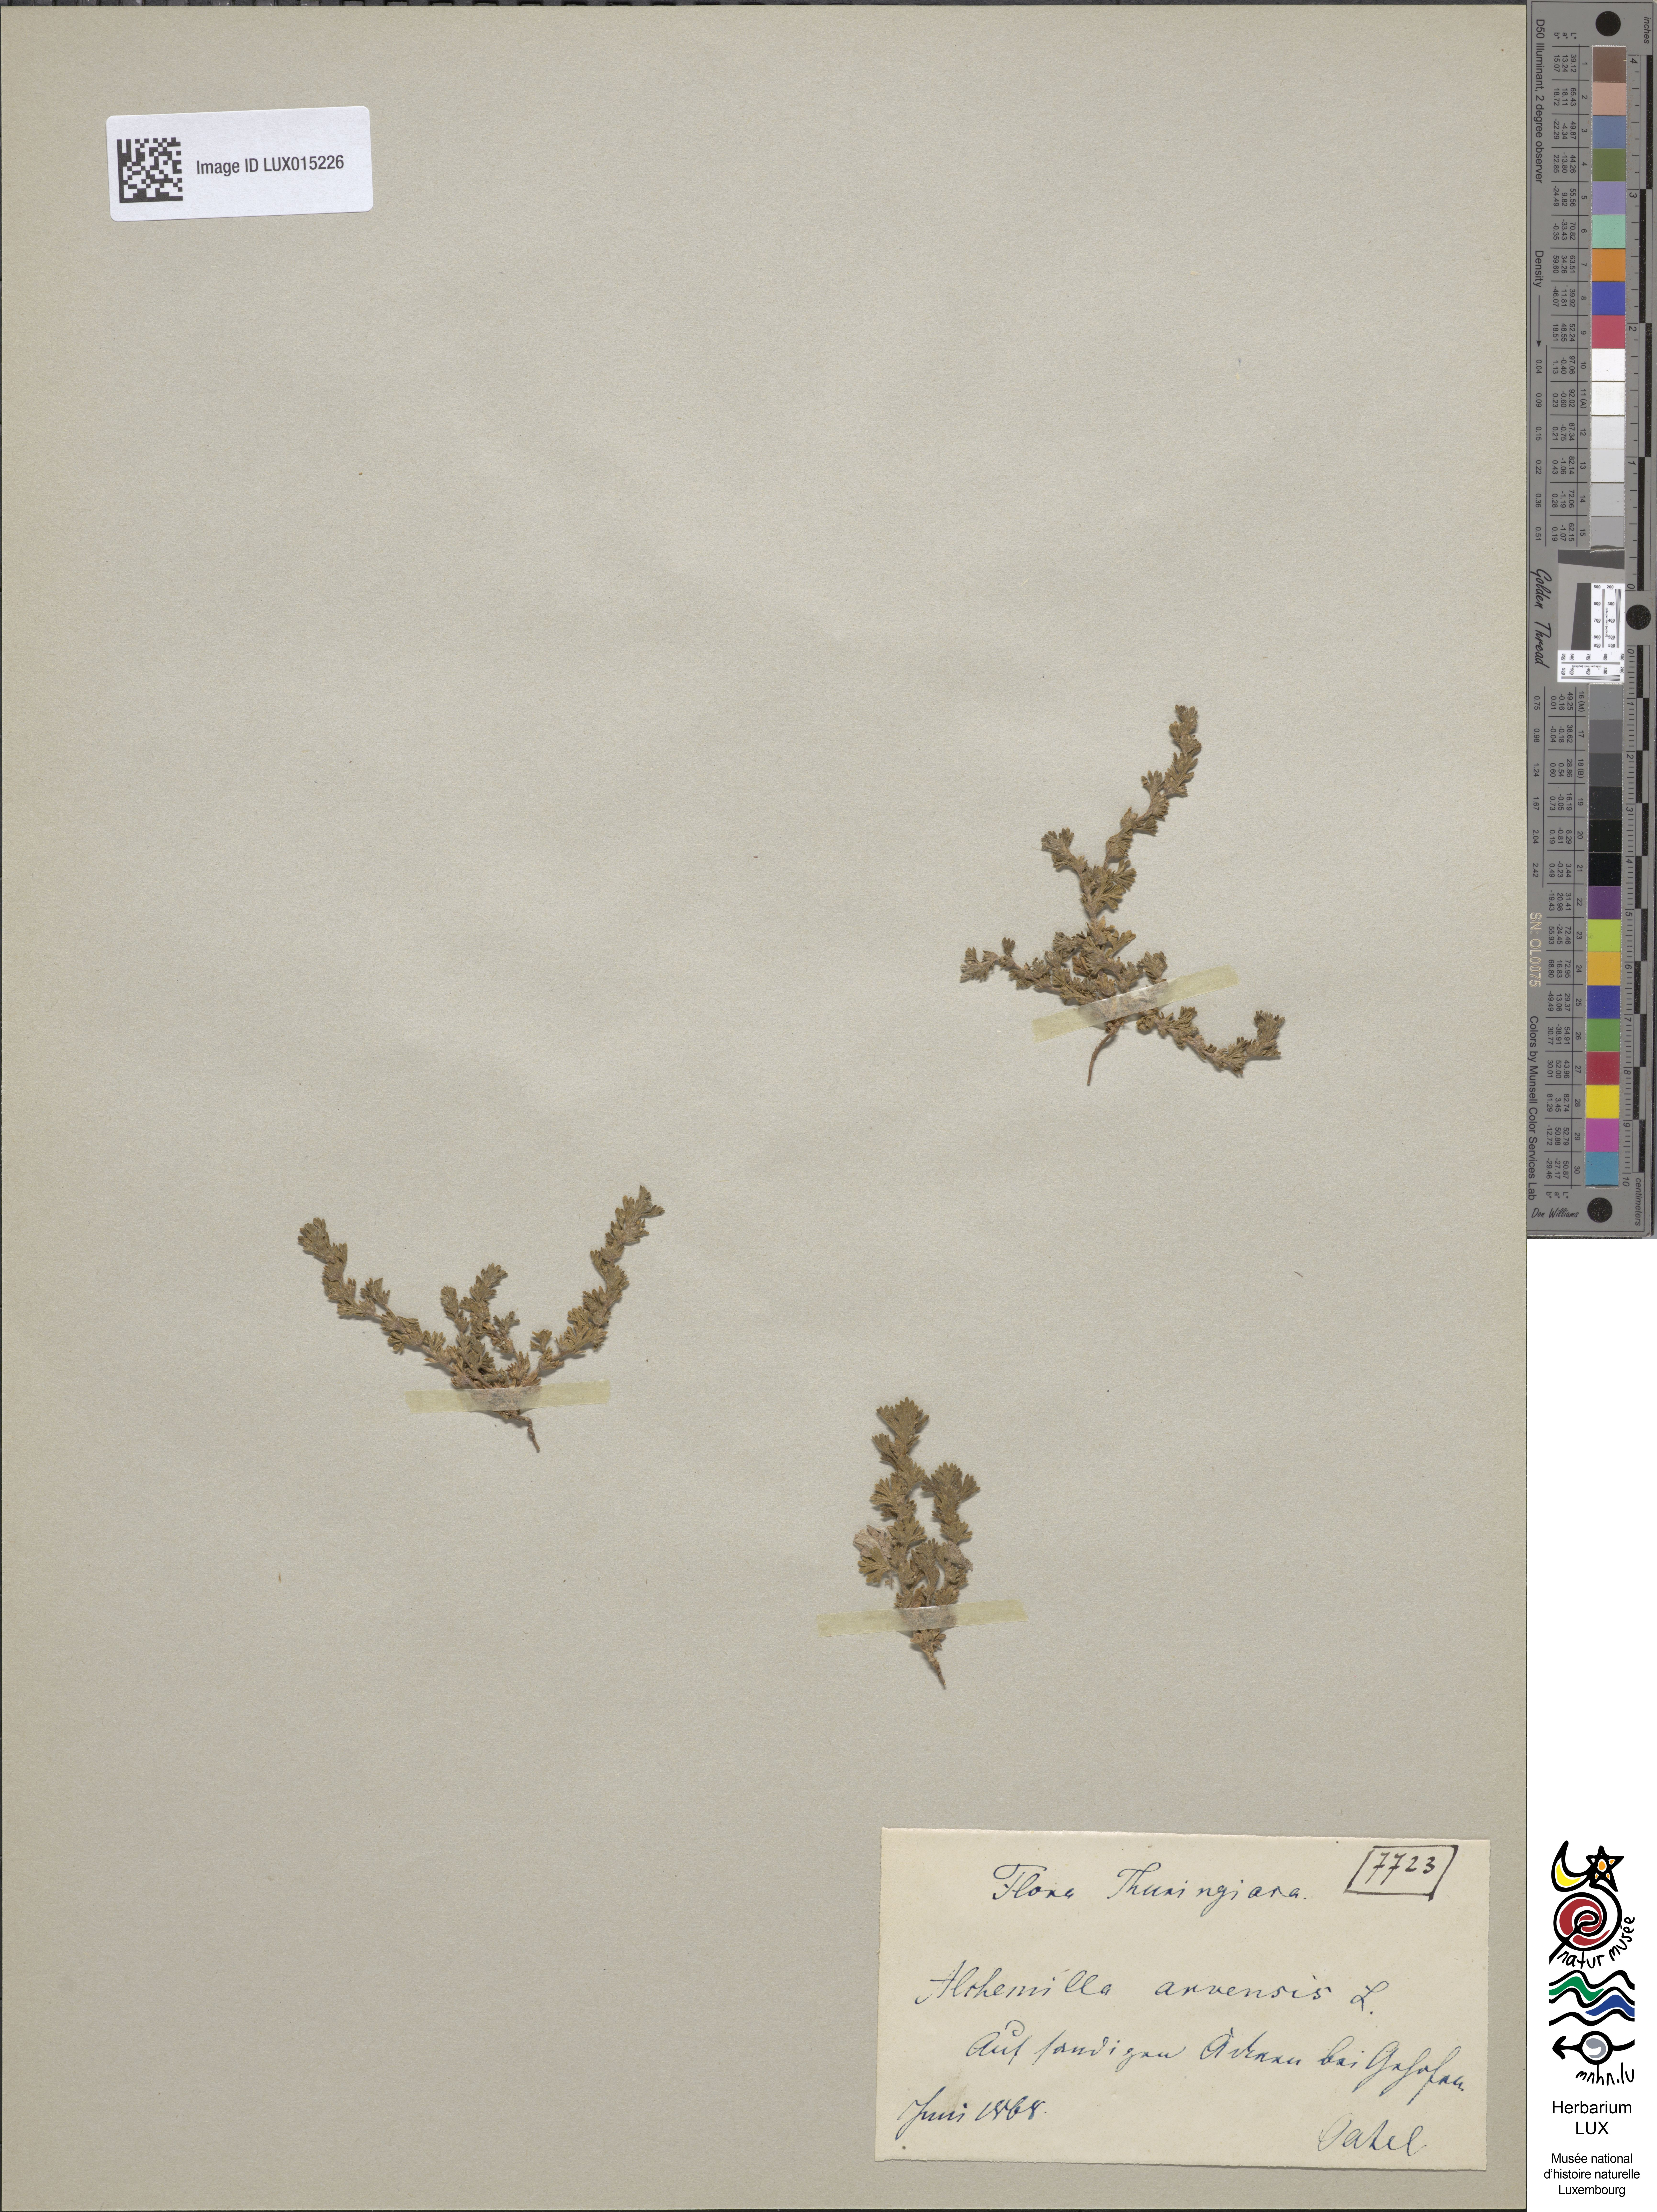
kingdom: Plantae
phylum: Tracheophyta
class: Magnoliopsida
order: Rosales
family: Rosaceae
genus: Aphanes
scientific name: Aphanes arvensis
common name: Parsley-piert
